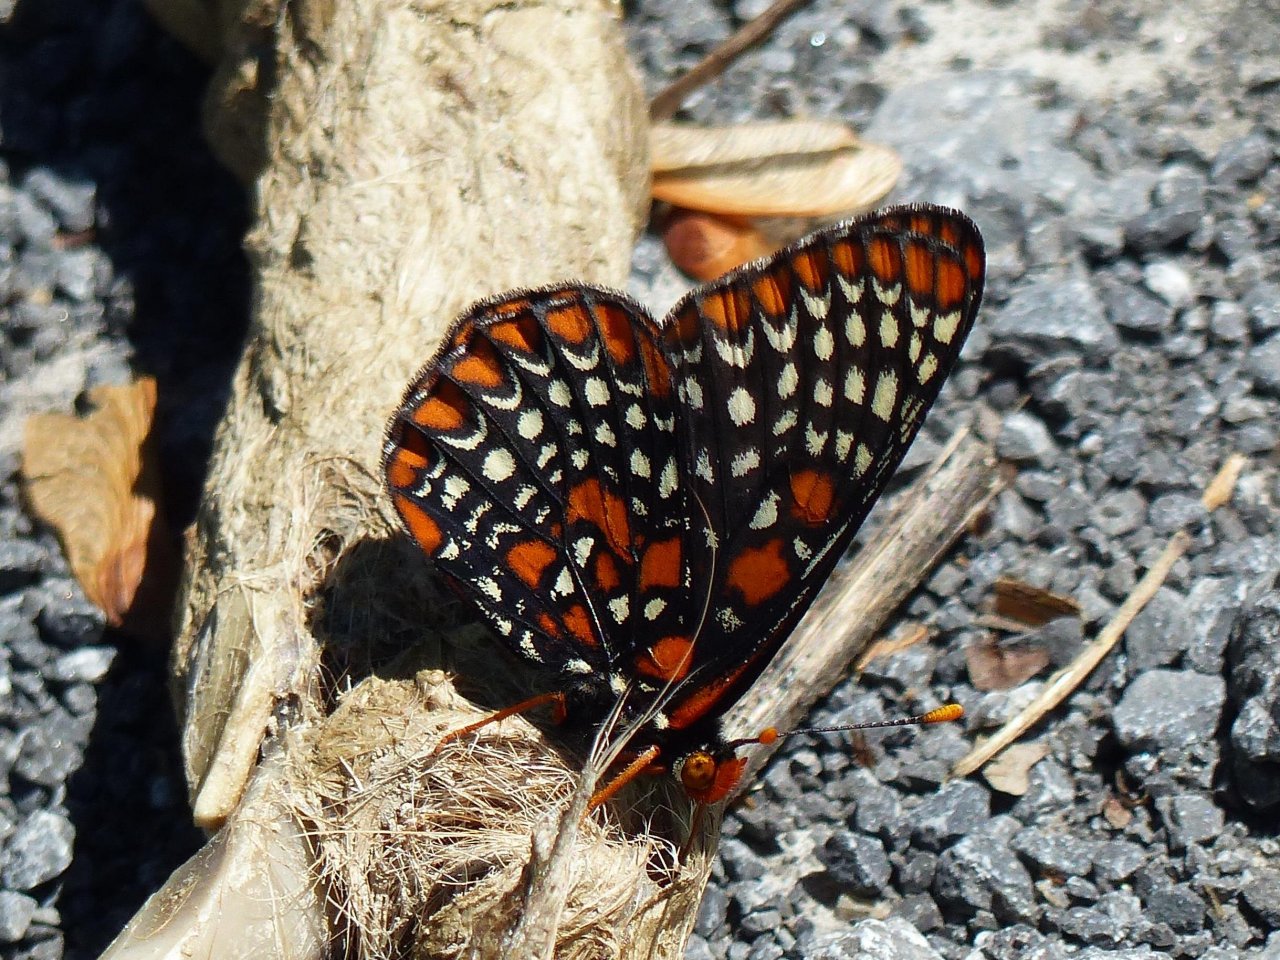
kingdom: Animalia
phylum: Arthropoda
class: Insecta
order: Lepidoptera
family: Nymphalidae
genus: Euphydryas
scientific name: Euphydryas phaeton
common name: Baltimore Checkerspot
